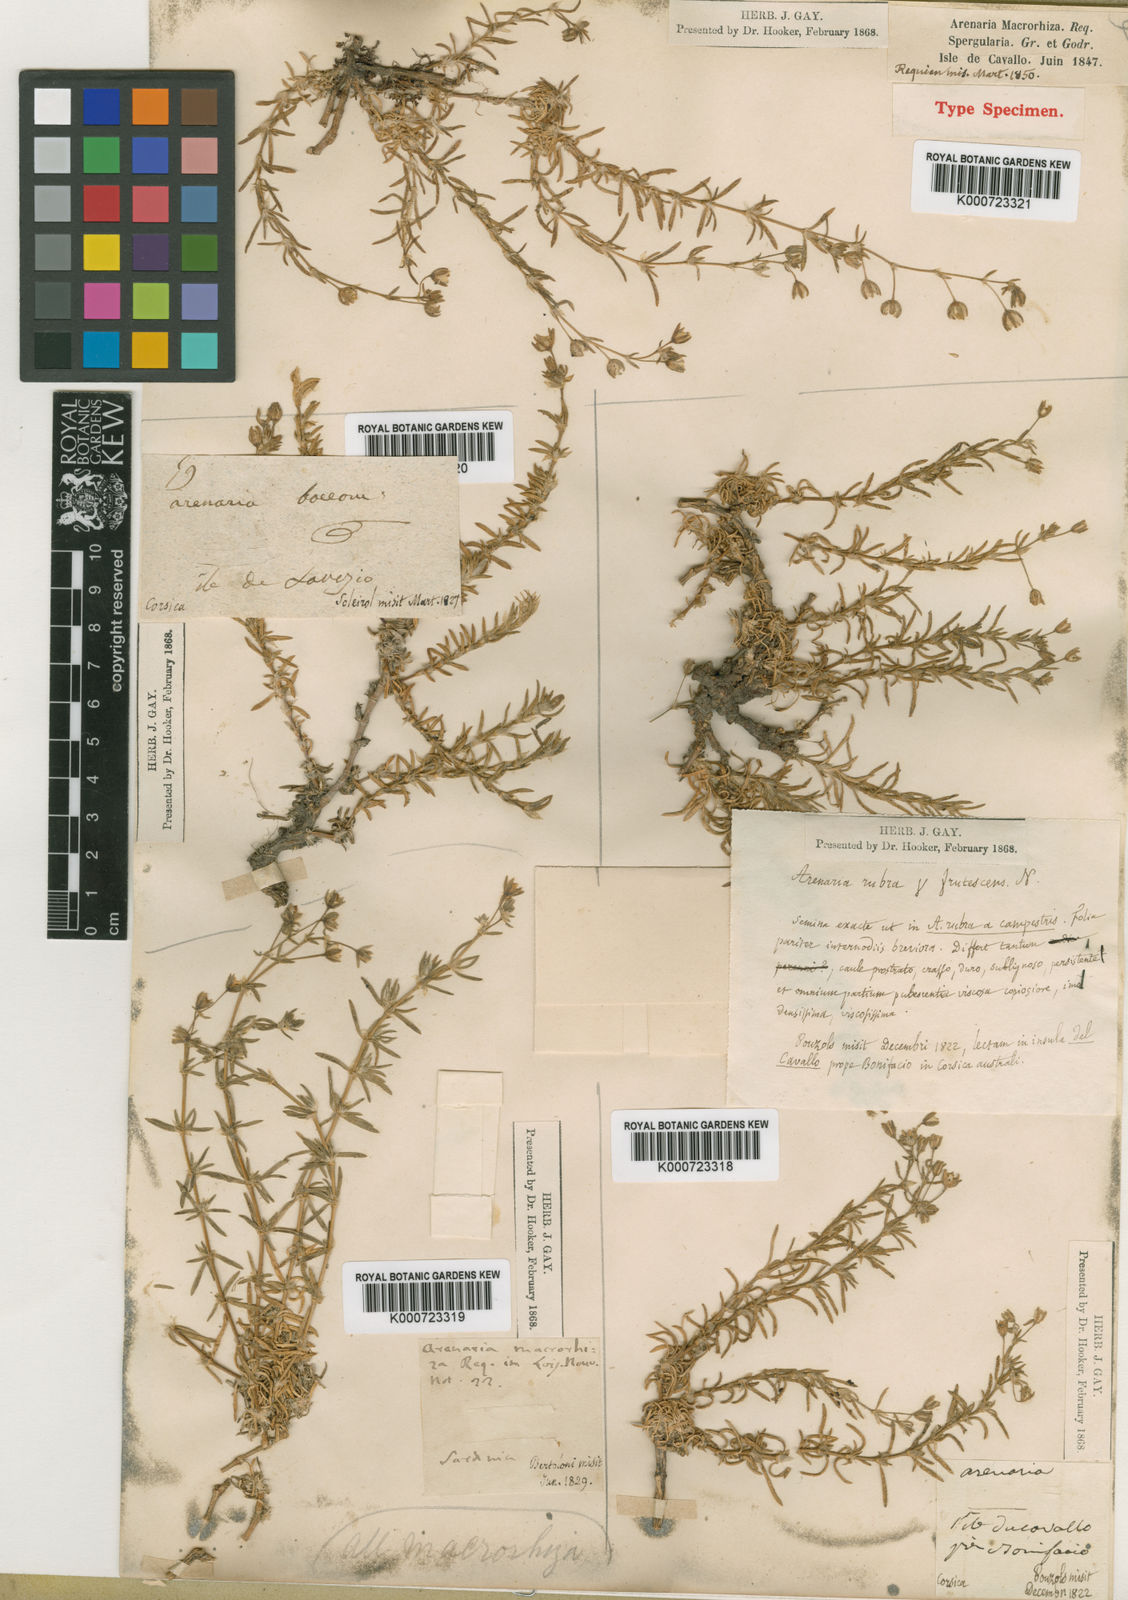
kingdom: Plantae
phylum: Tracheophyta
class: Magnoliopsida
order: Caryophyllales
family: Caryophyllaceae
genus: Spergularia
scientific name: Spergularia macrorrhiza
